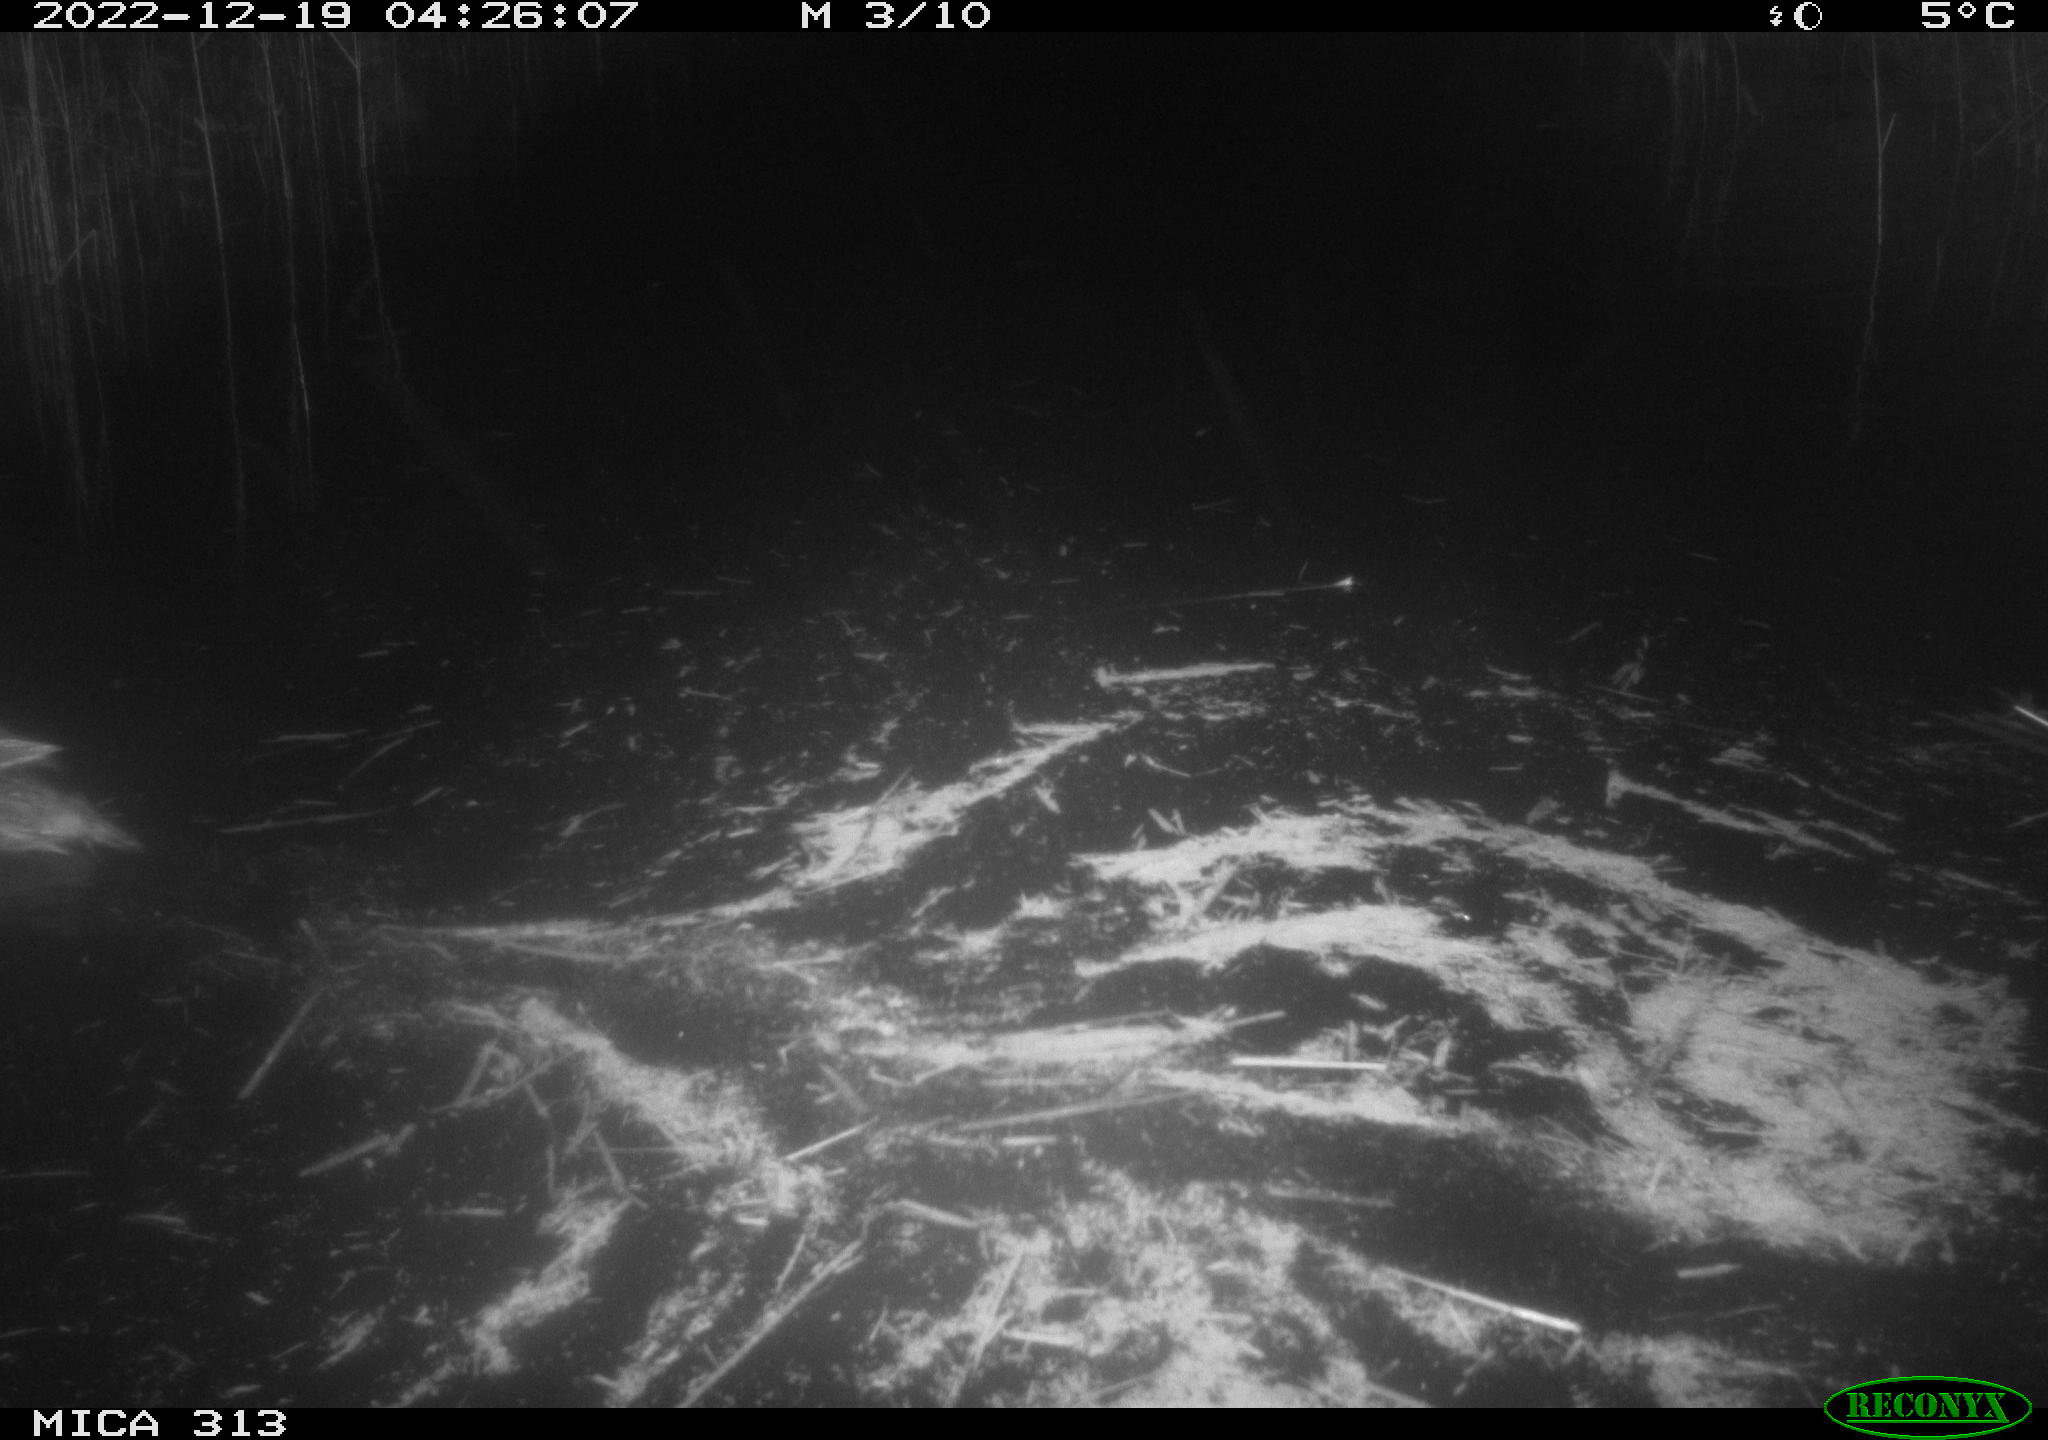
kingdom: Animalia
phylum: Chordata
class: Aves
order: Anseriformes
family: Anatidae
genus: Anas
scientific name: Anas
